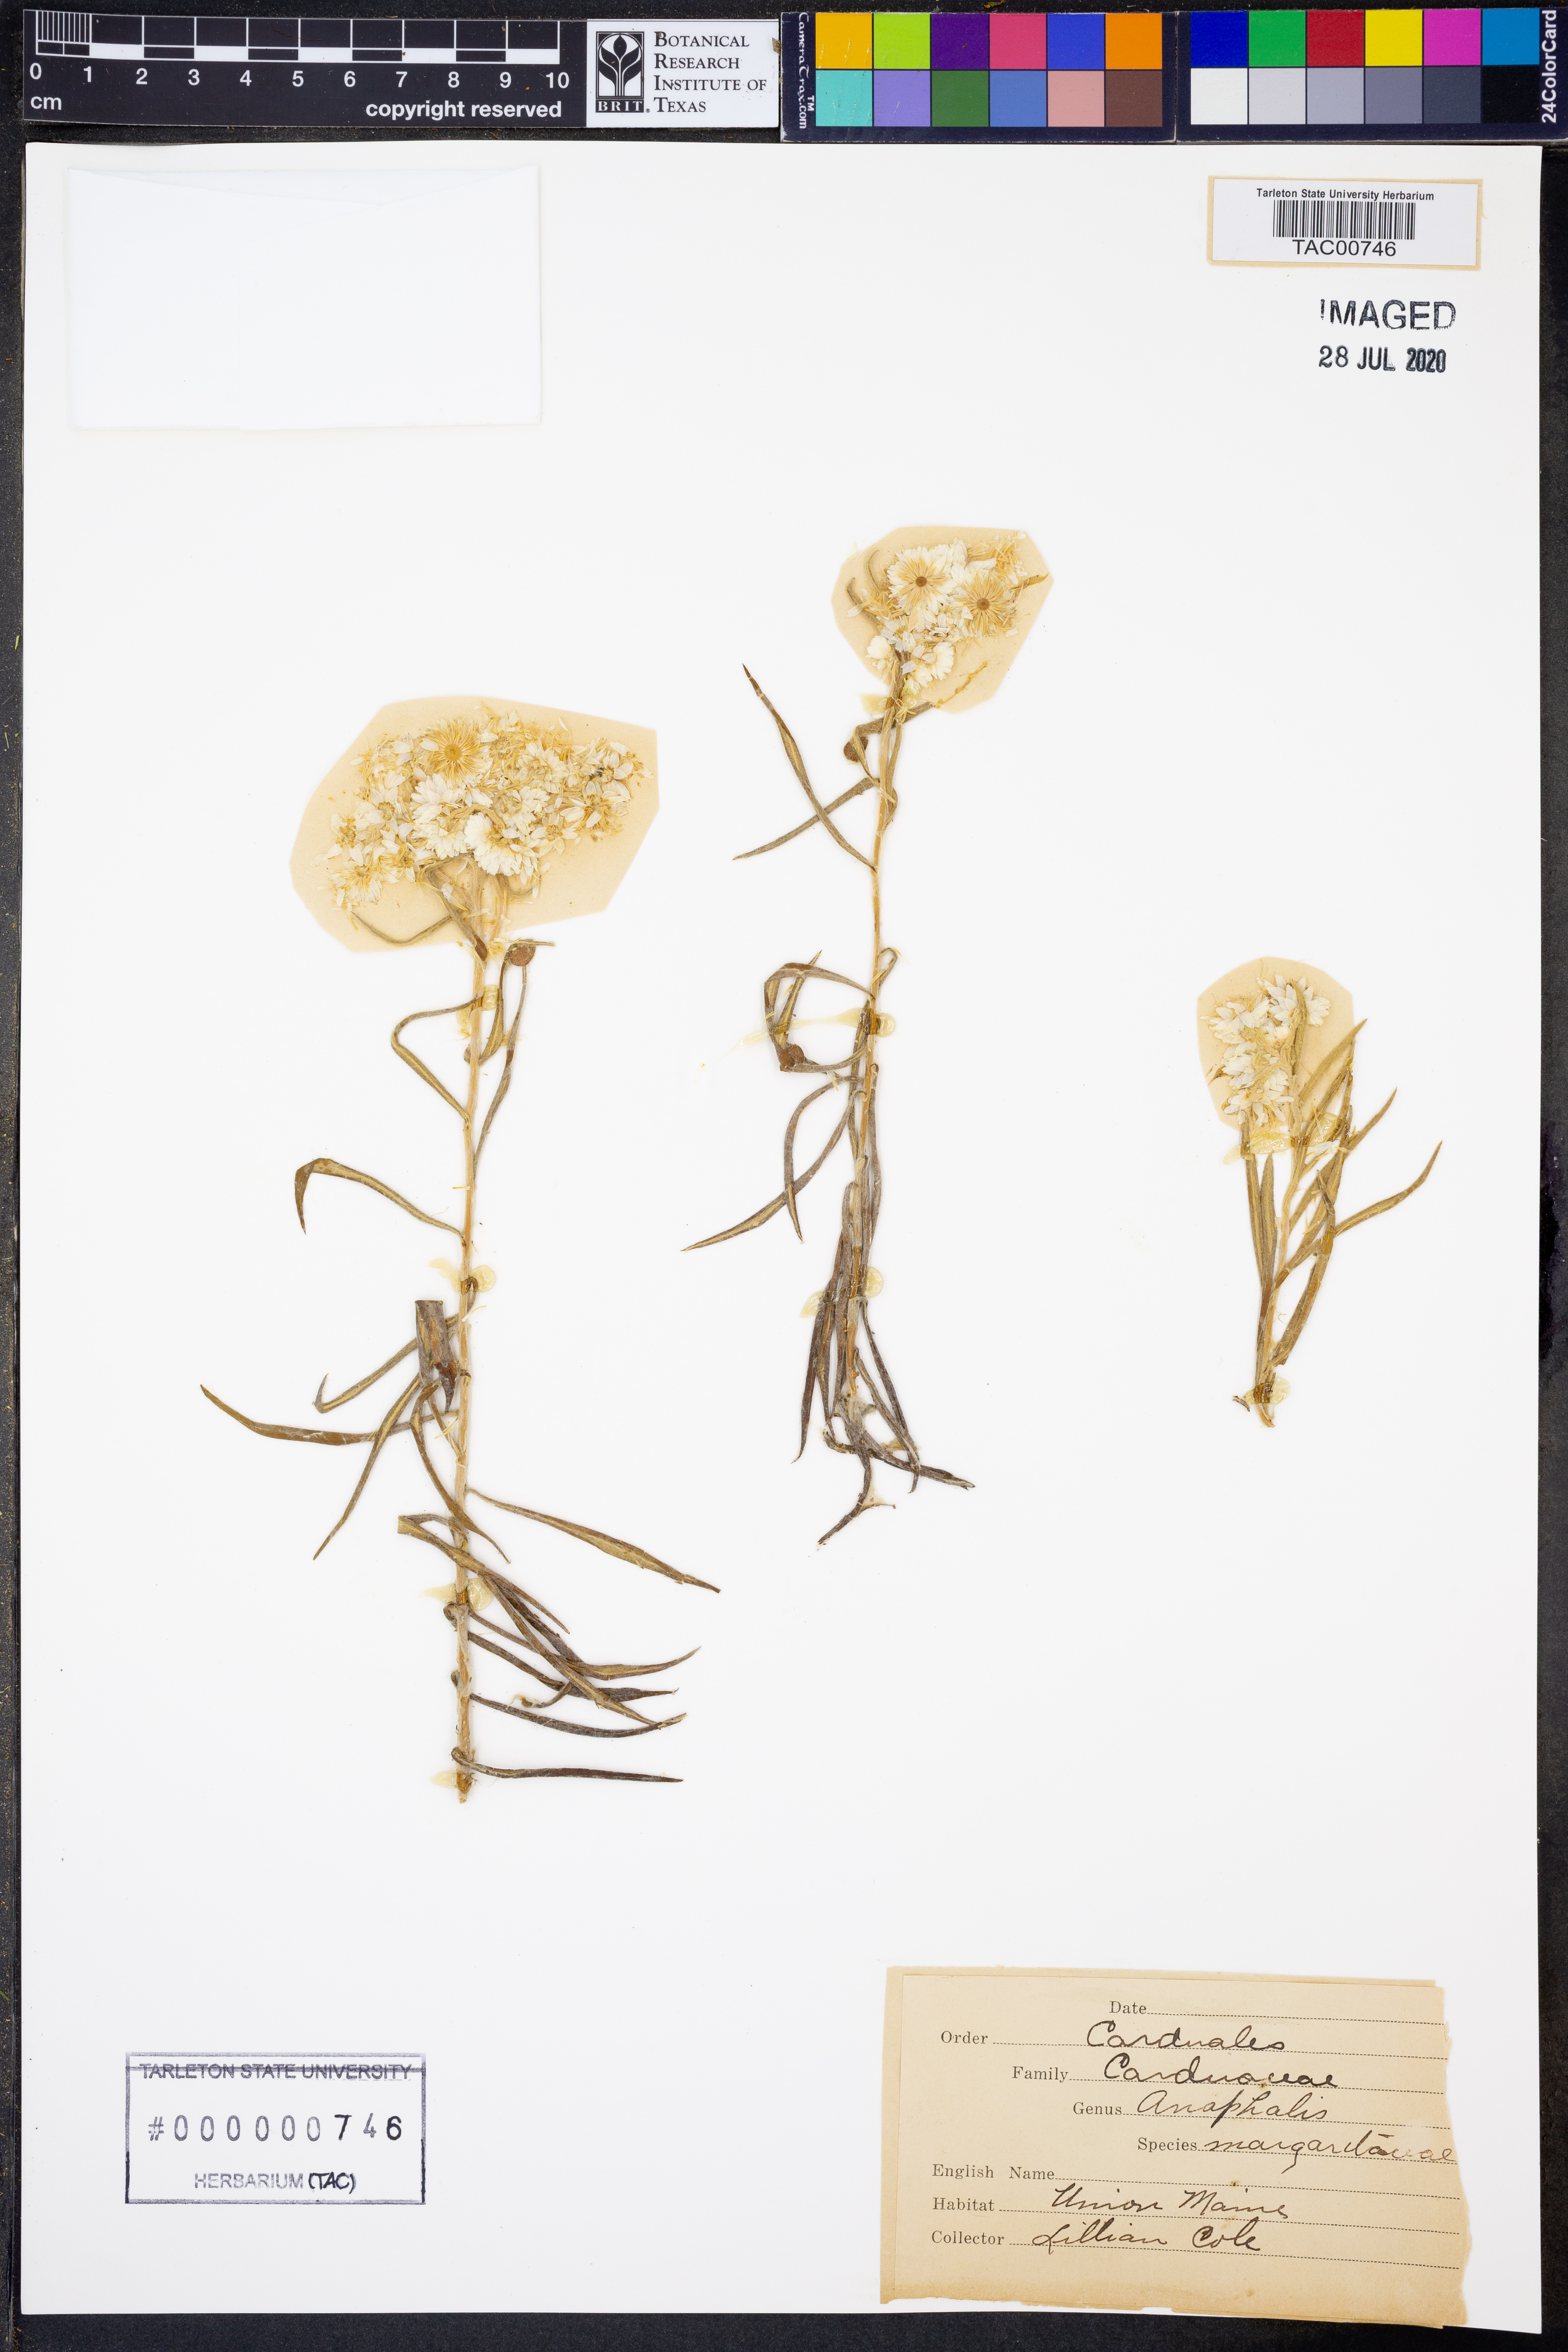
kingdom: Plantae
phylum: Tracheophyta
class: Magnoliopsida
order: Asterales
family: Asteraceae
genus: Anaphalis
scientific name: Anaphalis margaritacea
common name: Pearly everlasting
